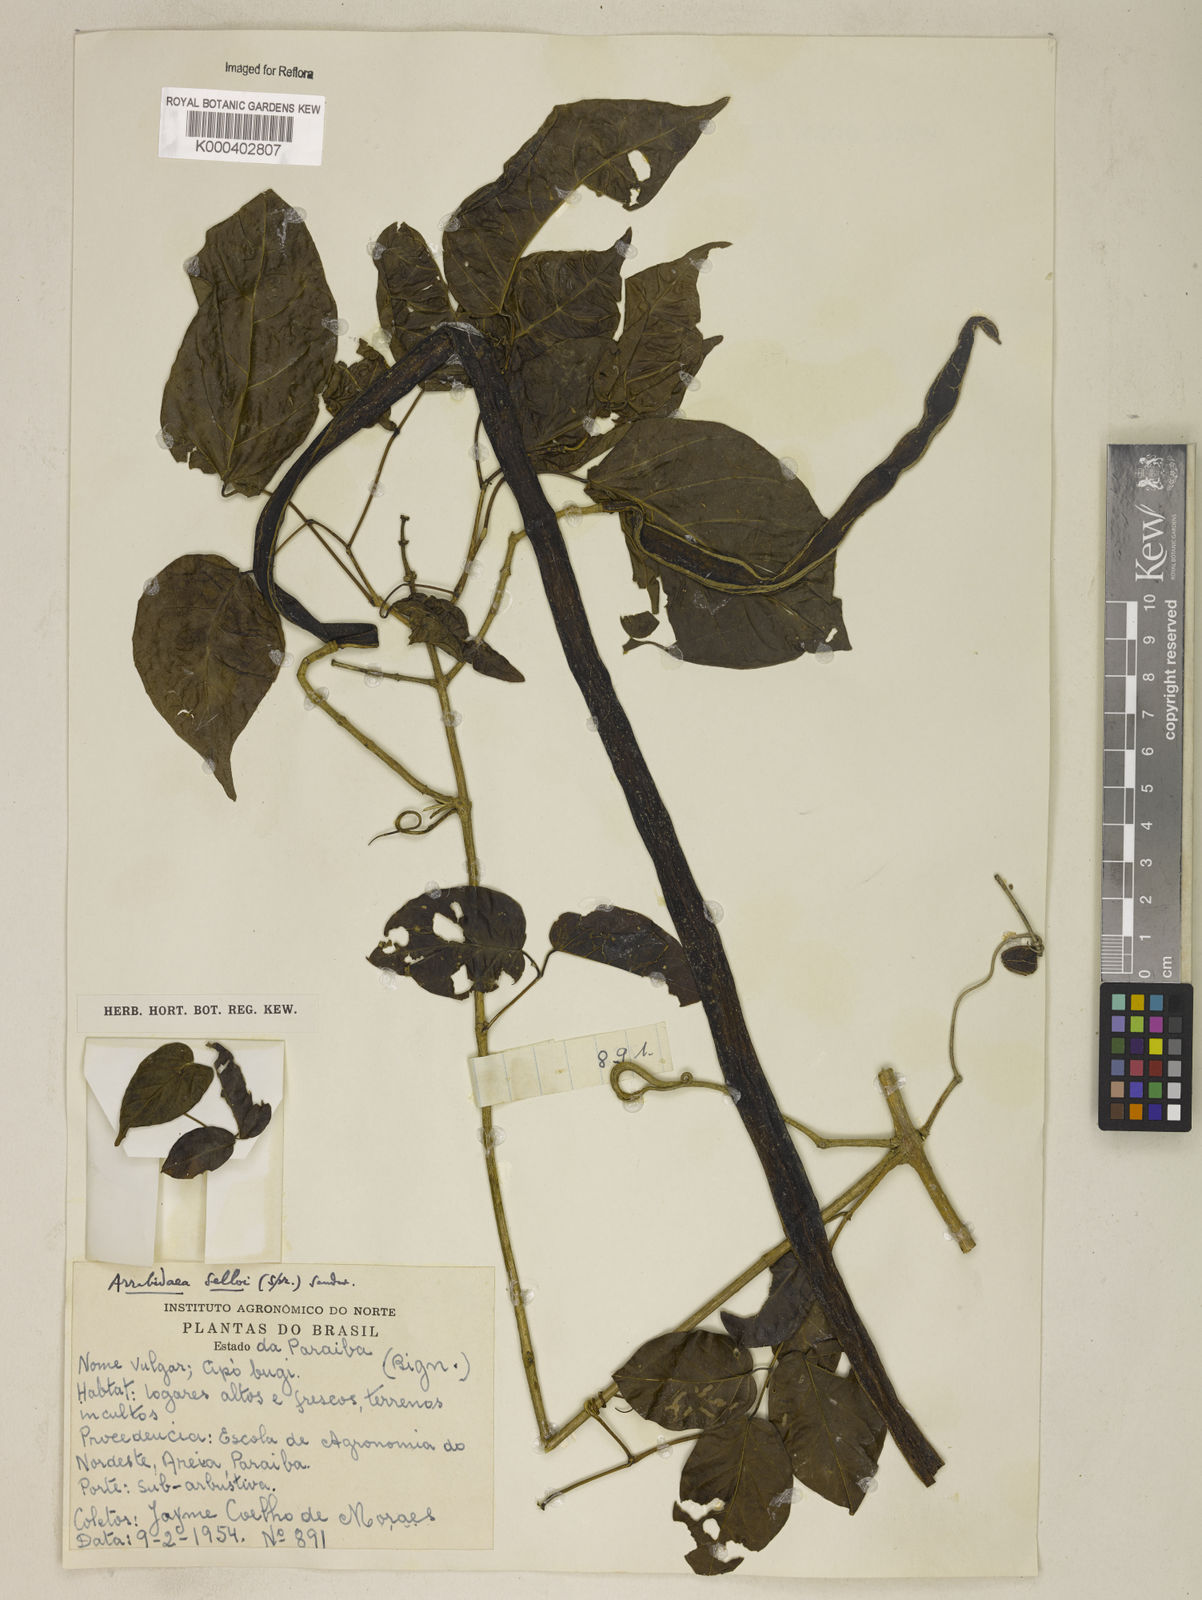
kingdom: Plantae
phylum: Tracheophyta
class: Magnoliopsida
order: Lamiales
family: Bignoniaceae
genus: Tanaecium
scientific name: Tanaecium selloi
